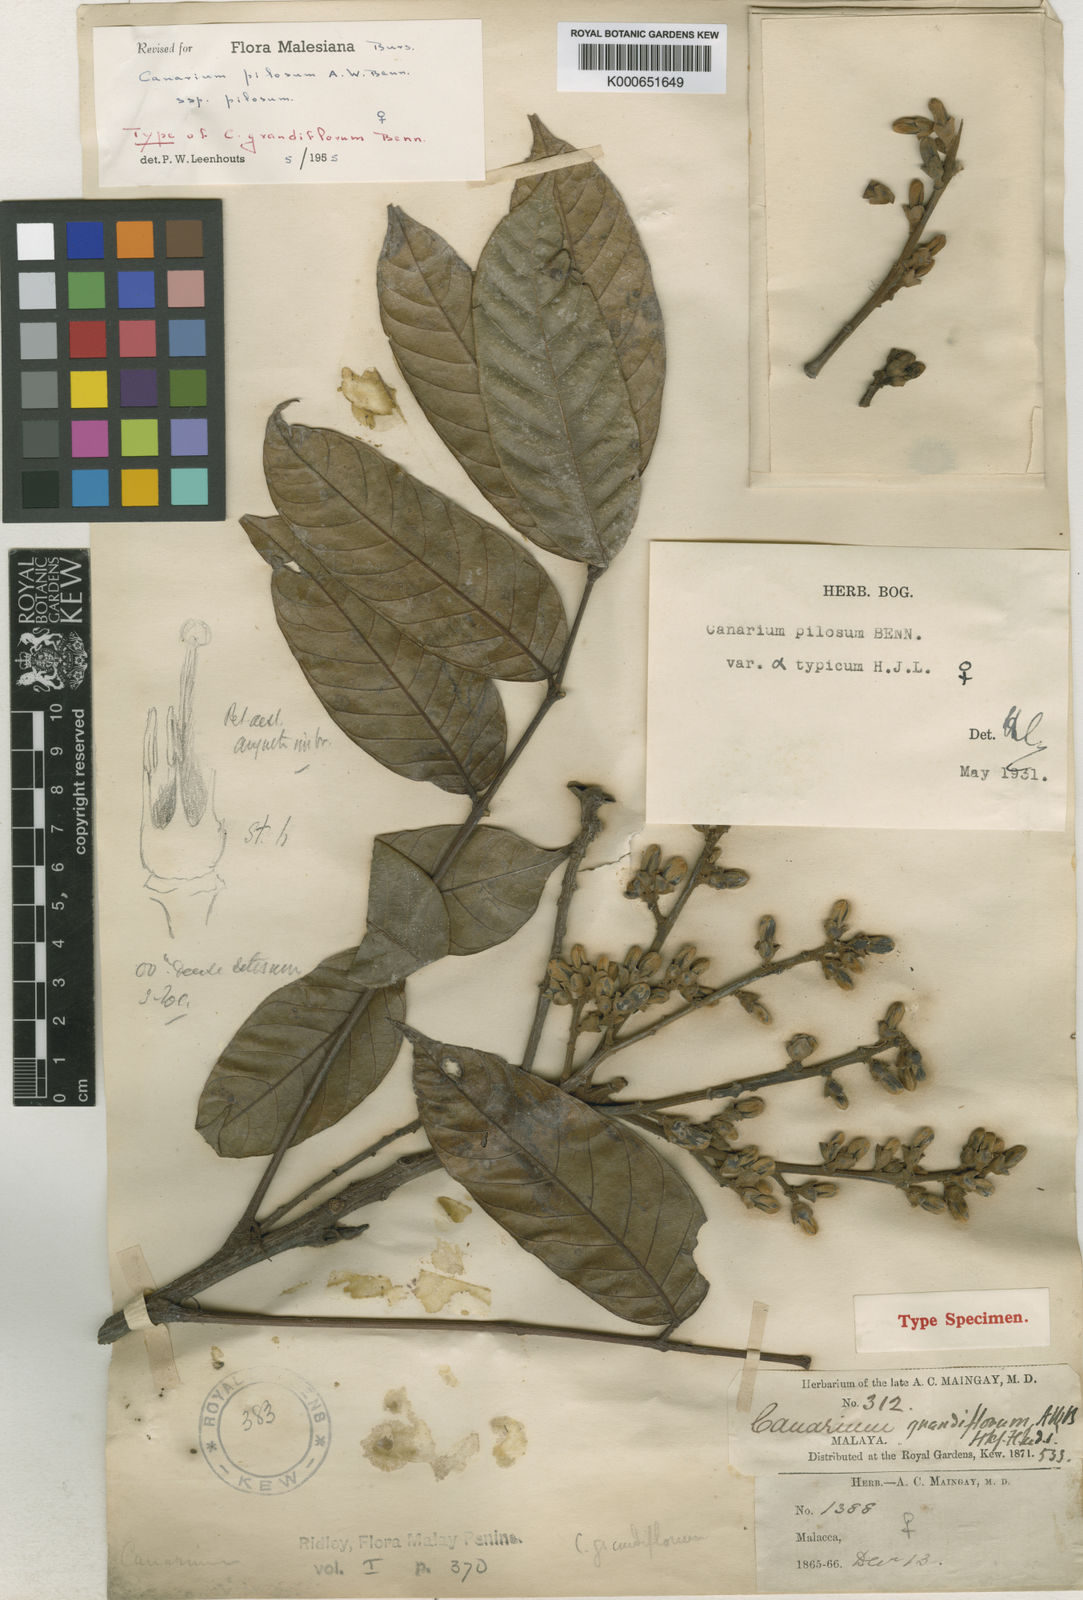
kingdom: Plantae
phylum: Tracheophyta
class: Magnoliopsida
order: Sapindales
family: Burseraceae
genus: Canarium
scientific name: Canarium pilosum
